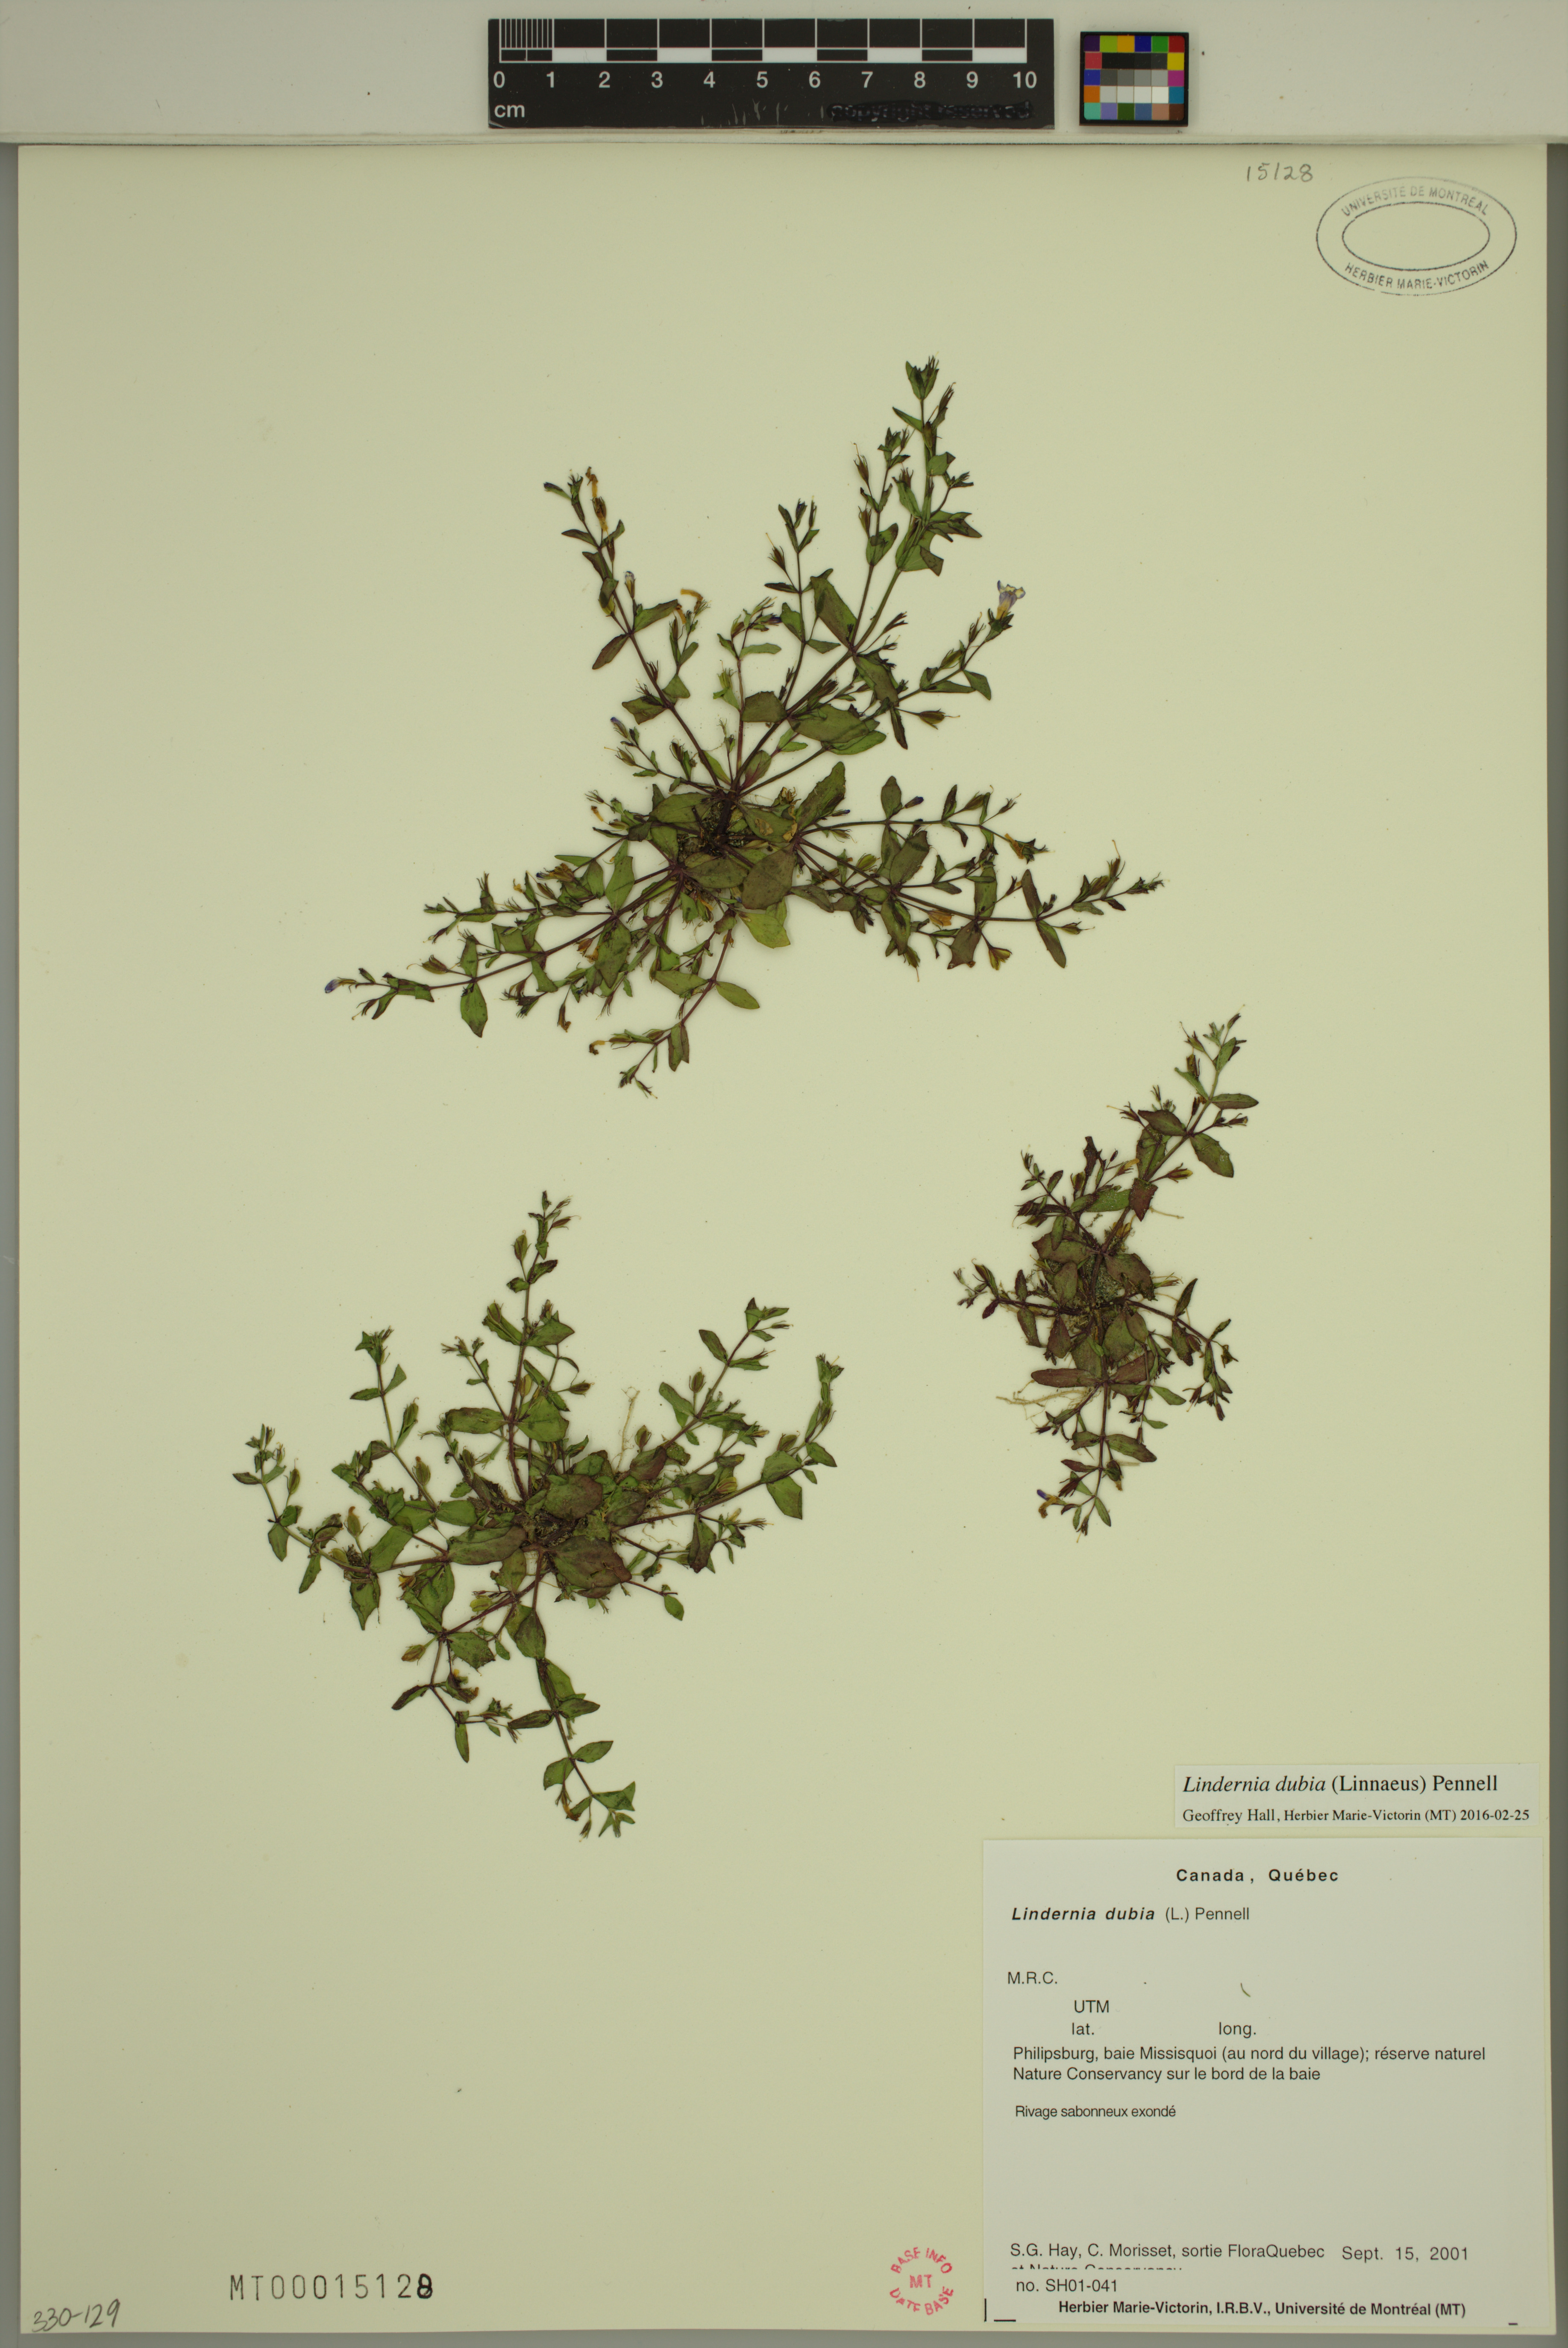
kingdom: Plantae
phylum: Tracheophyta
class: Magnoliopsida
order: Lamiales
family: Linderniaceae
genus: Lindernia
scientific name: Lindernia dubia
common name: Annual false pimpernel
